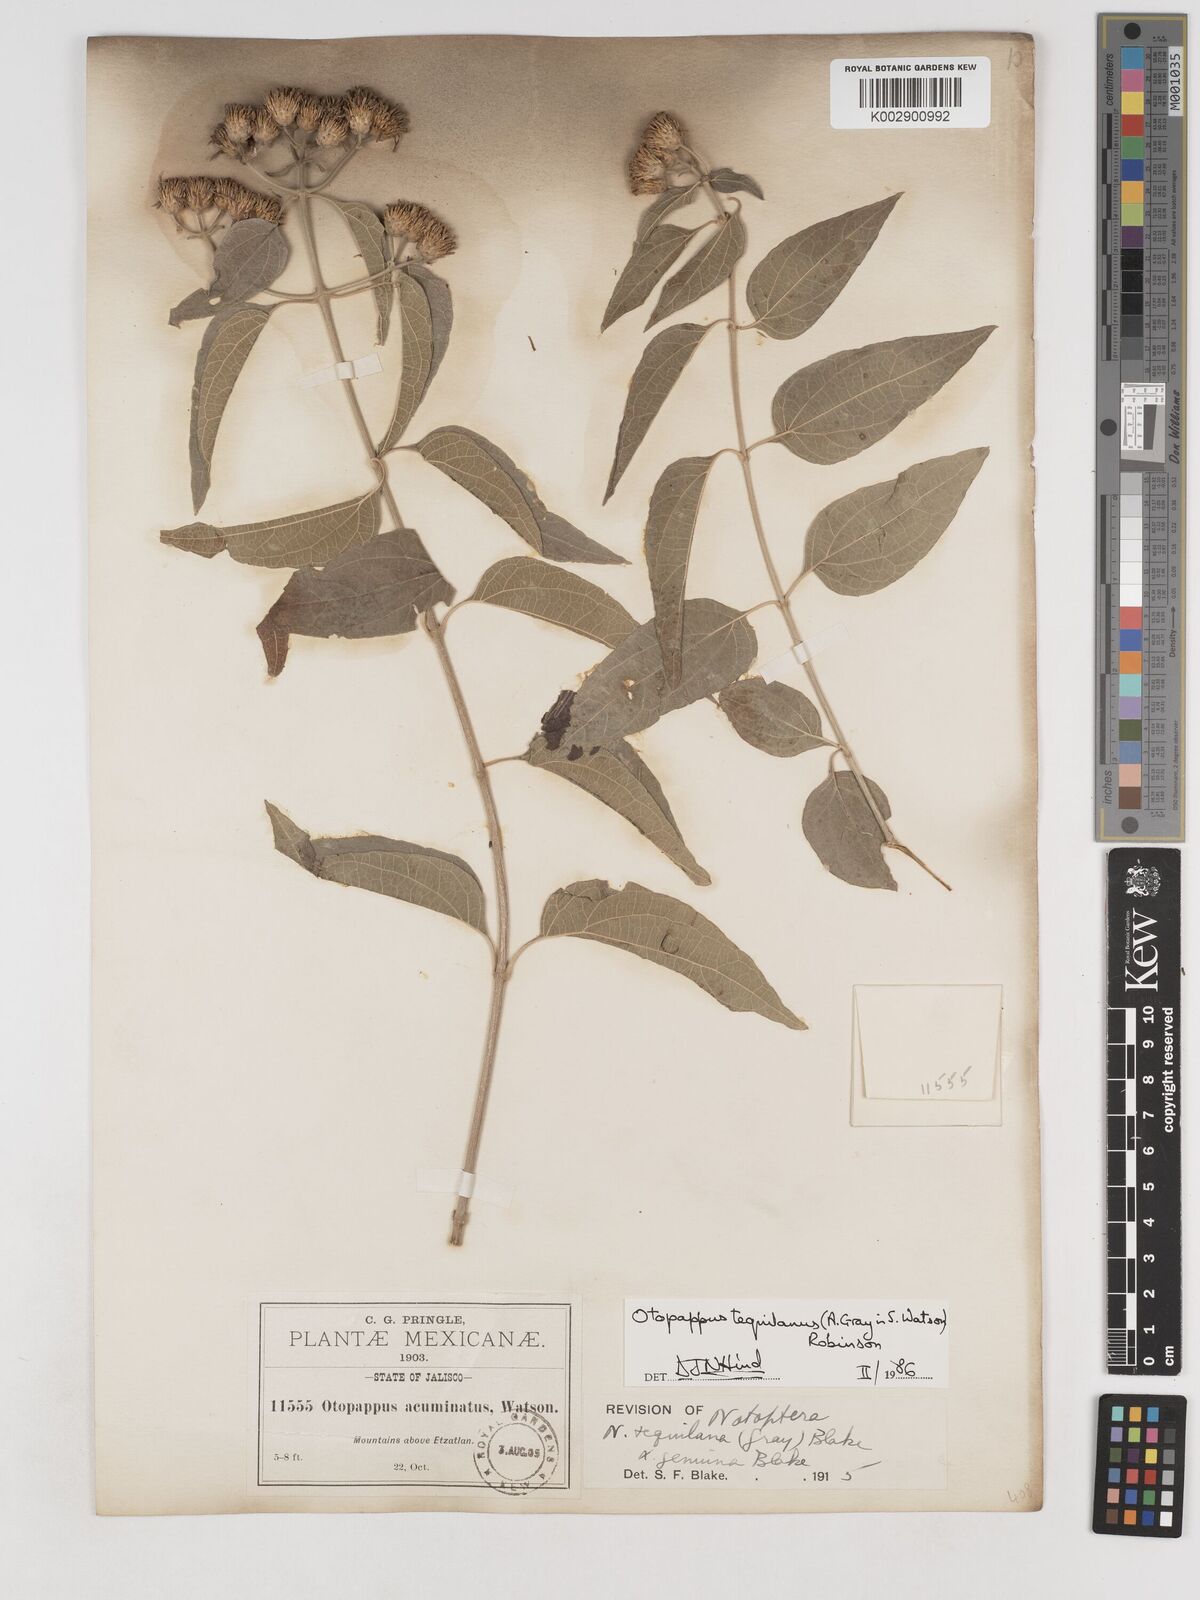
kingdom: Plantae
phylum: Tracheophyta
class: Magnoliopsida
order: Asterales
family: Asteraceae
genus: Otopappus
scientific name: Otopappus tequilanus
